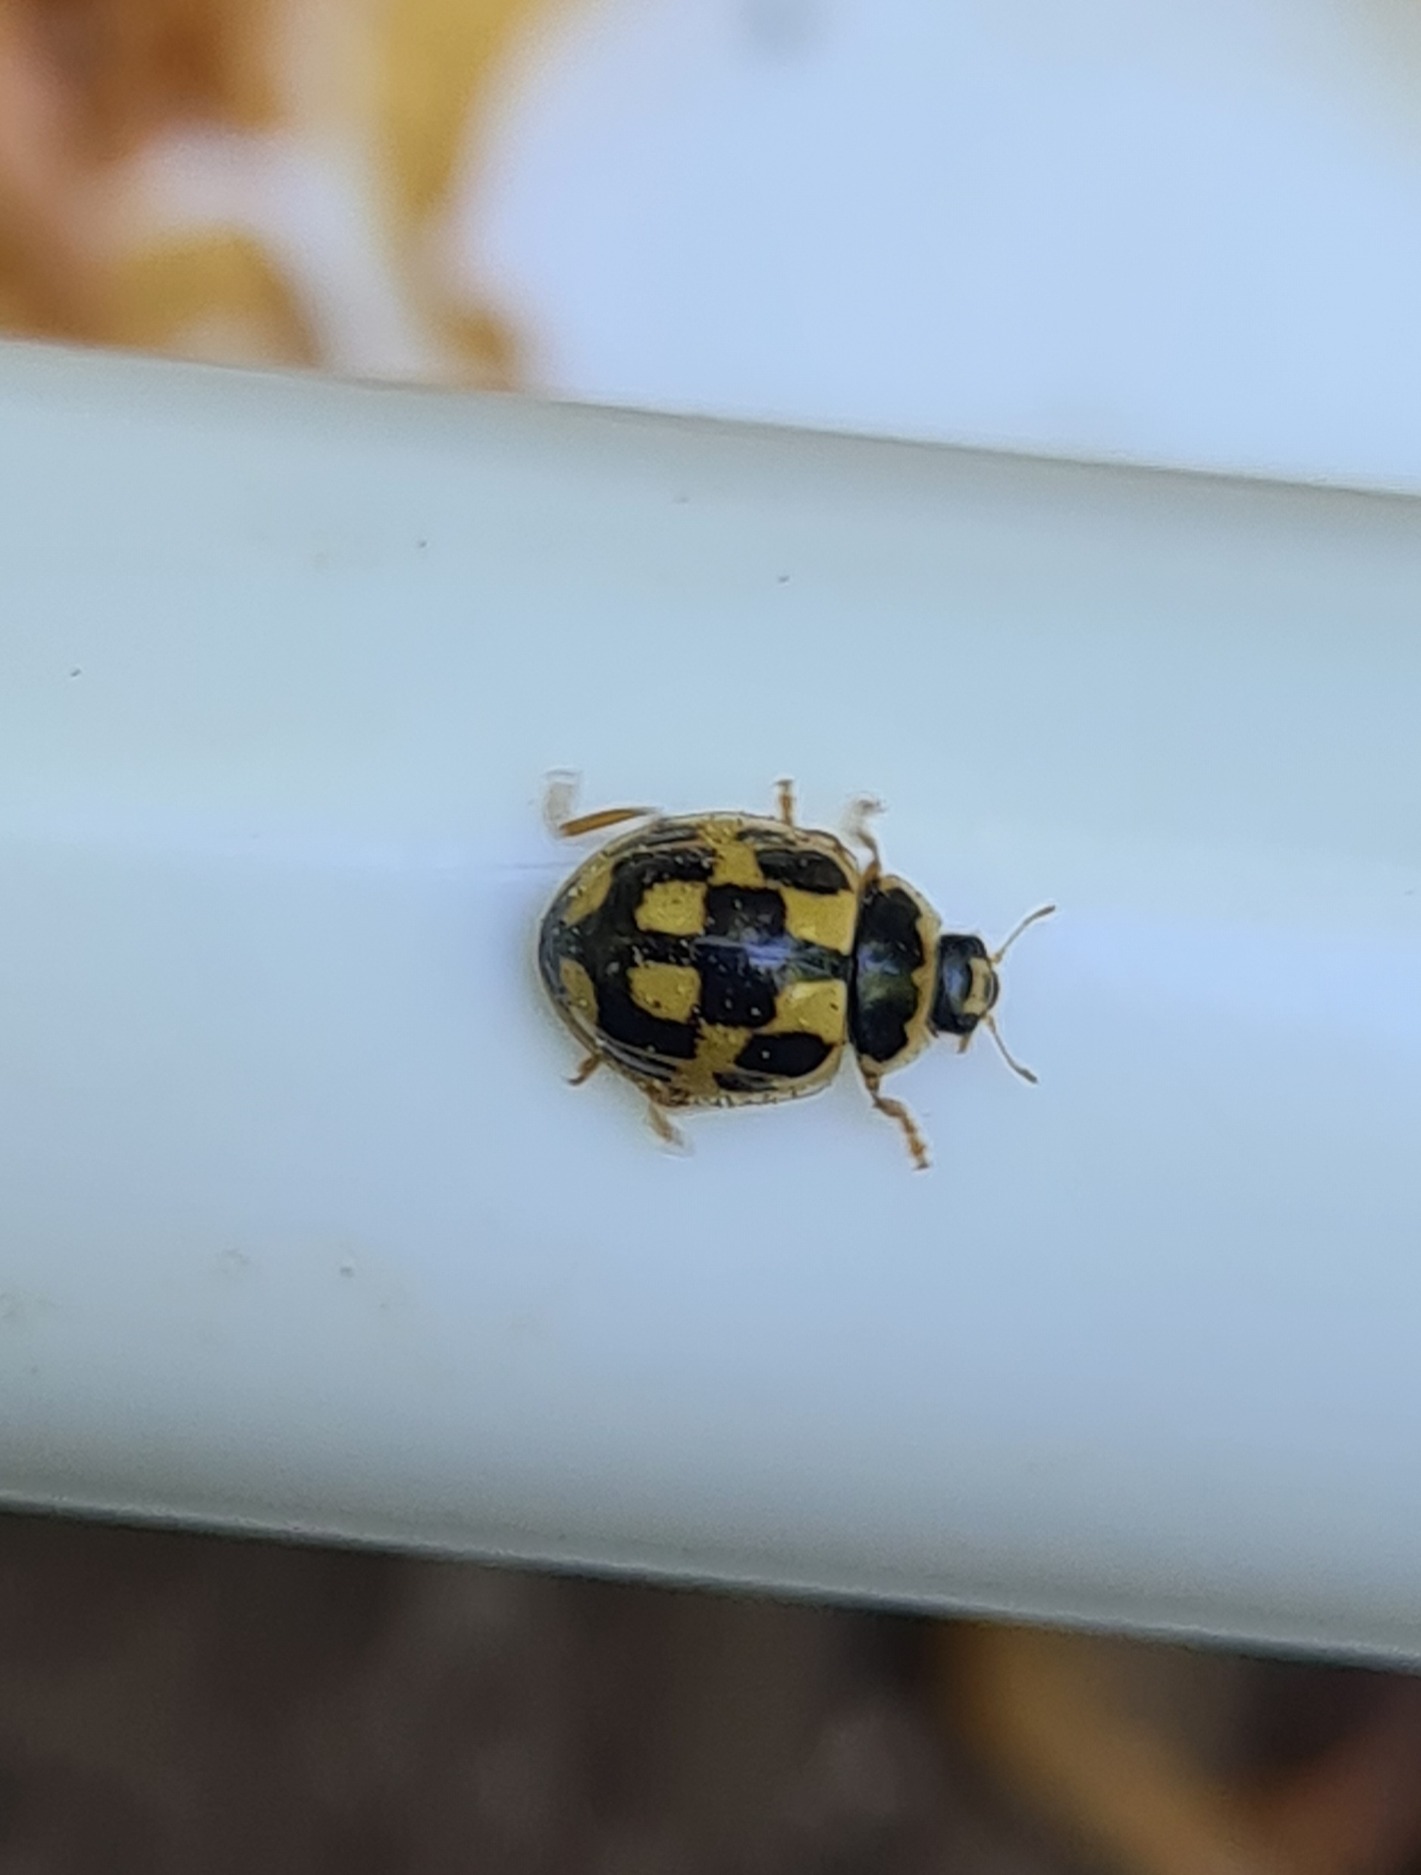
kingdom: Animalia
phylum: Arthropoda
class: Insecta
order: Coleoptera
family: Coccinellidae
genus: Propylaea
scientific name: Propylaea quatuordecimpunctata
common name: Skakbræt
